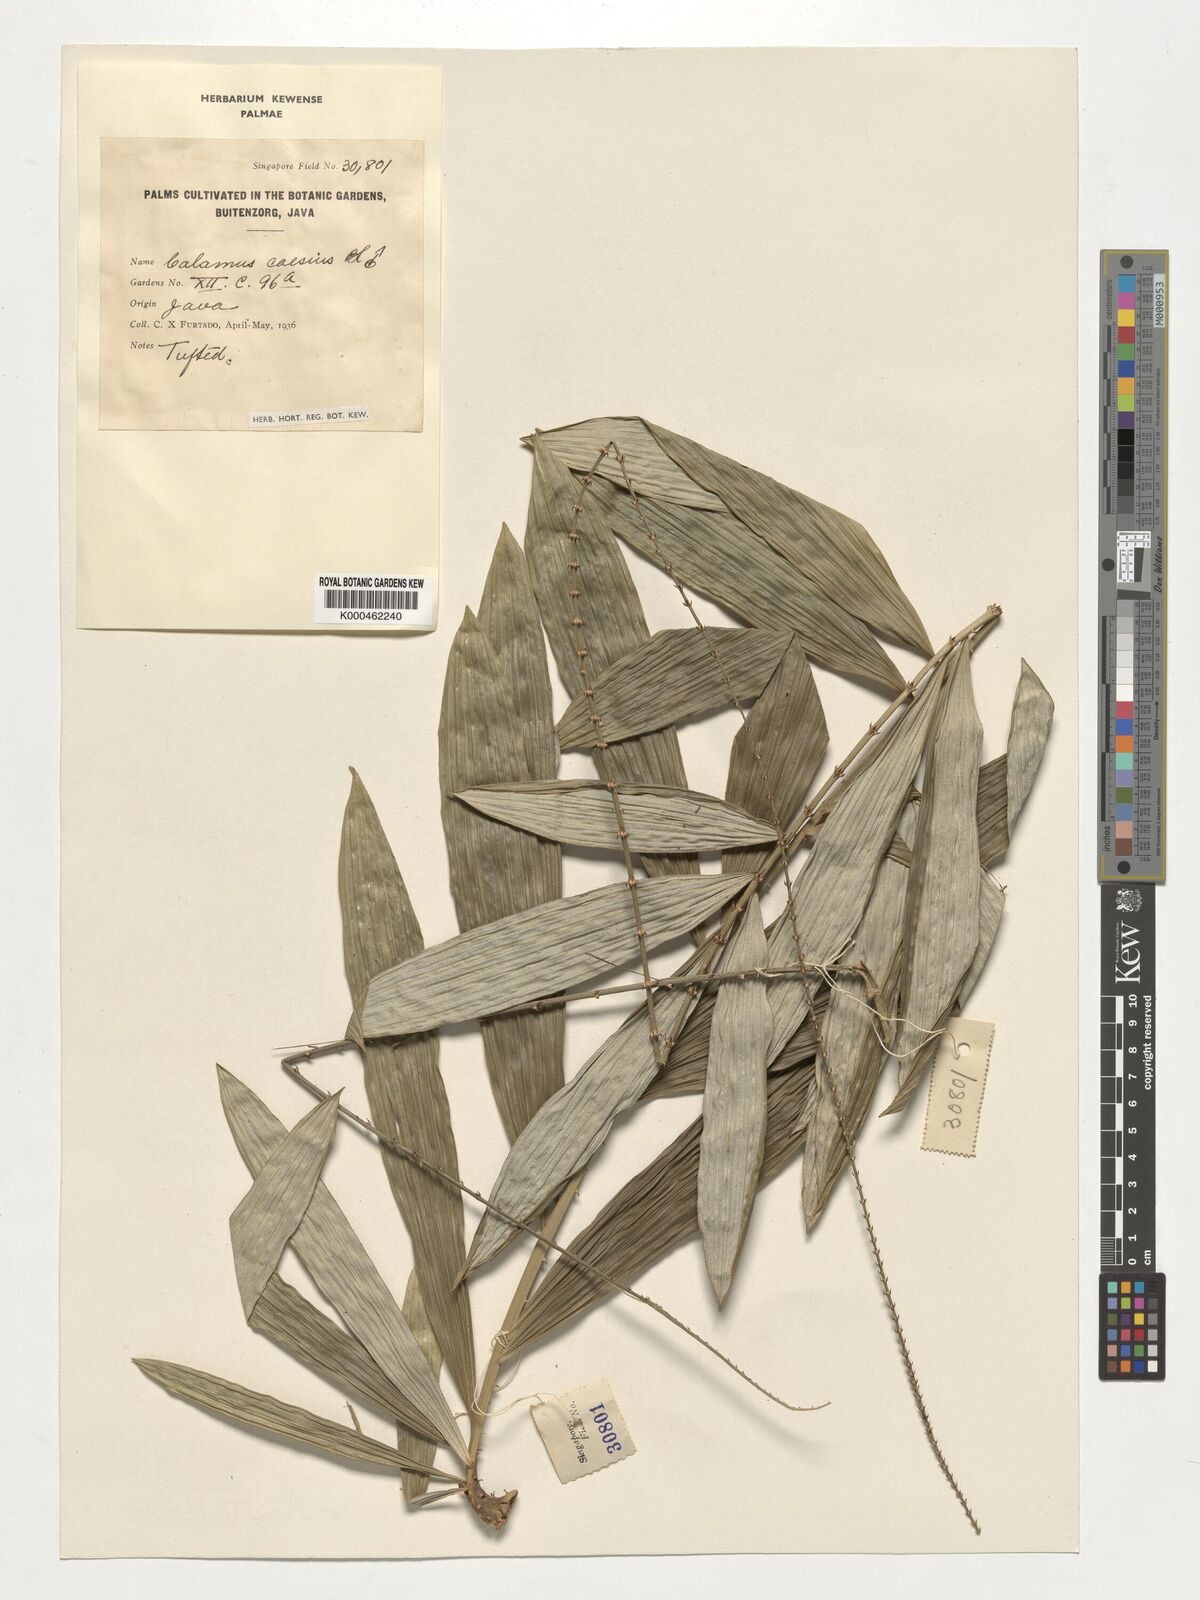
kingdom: Plantae
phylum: Tracheophyta
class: Liliopsida
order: Arecales
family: Arecaceae
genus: Calamus
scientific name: Calamus caesius
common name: Rattan palm
